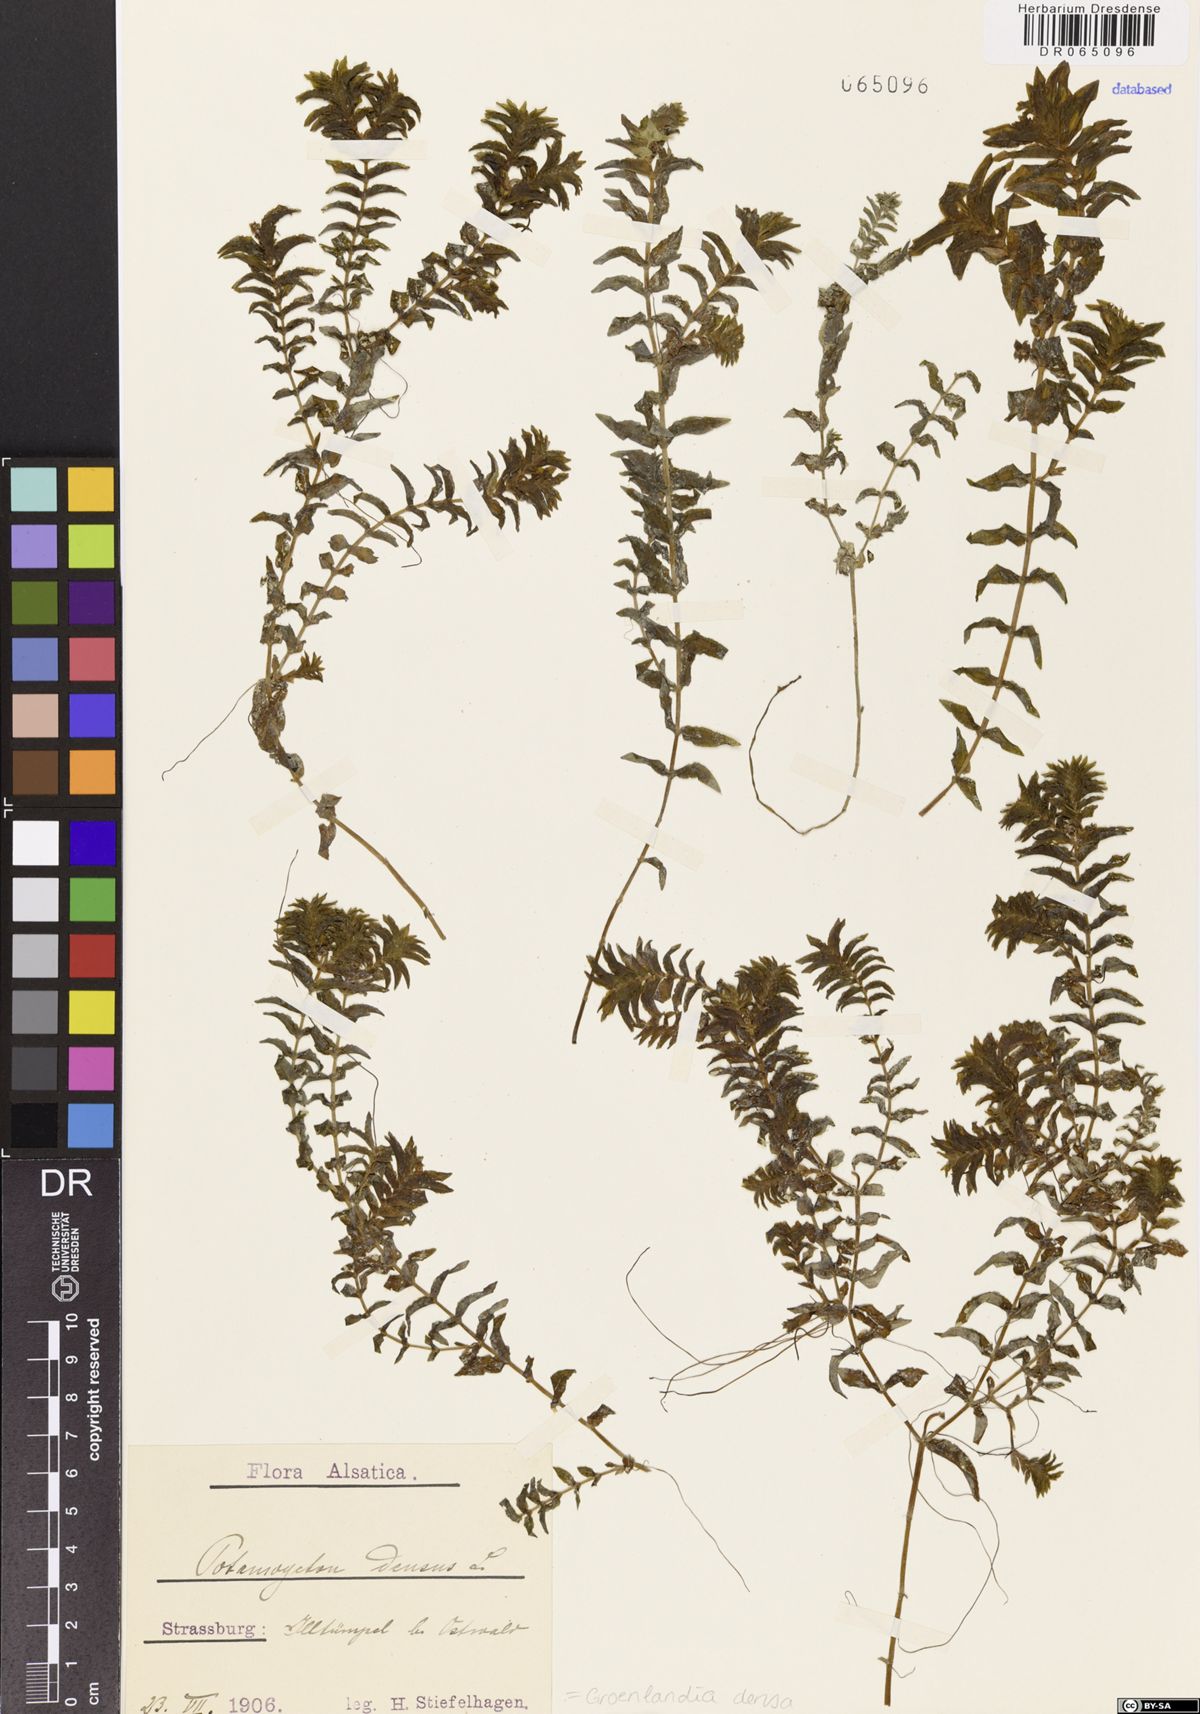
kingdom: Plantae
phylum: Tracheophyta
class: Liliopsida
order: Alismatales
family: Potamogetonaceae
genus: Groenlandia
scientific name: Groenlandia densa
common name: Opposite-leaved pondweed
